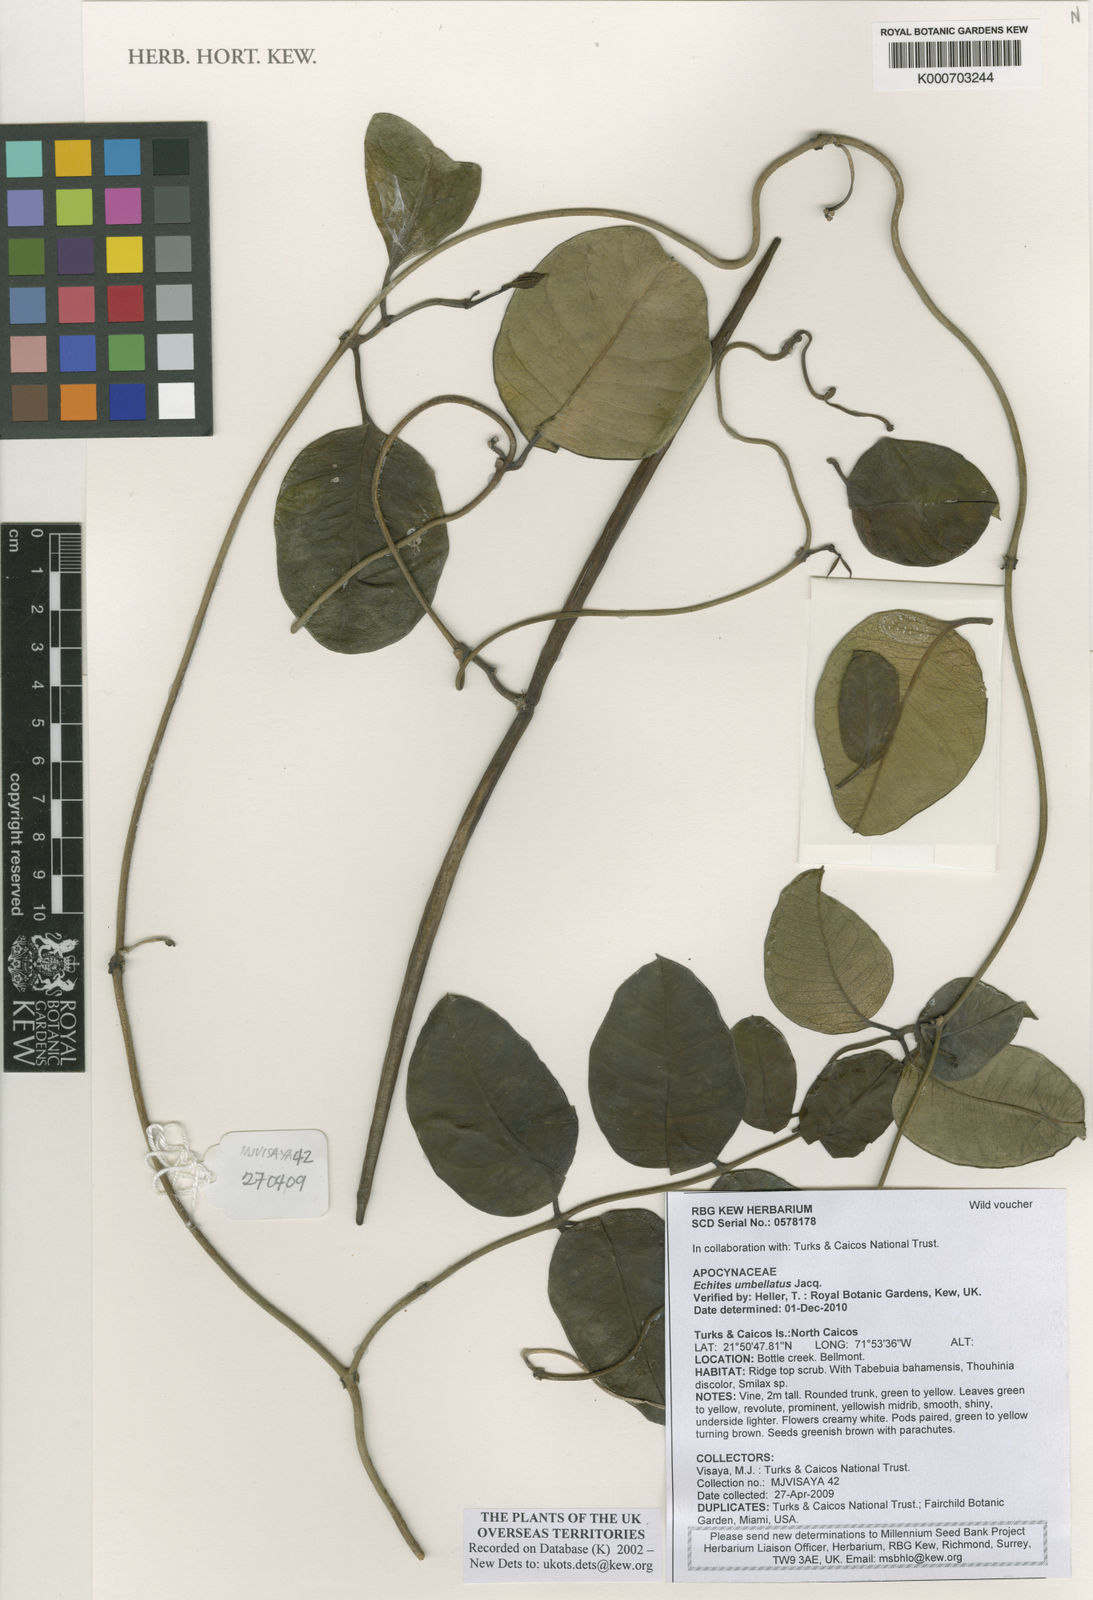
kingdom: Plantae
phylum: Tracheophyta
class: Magnoliopsida
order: Gentianales
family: Apocynaceae
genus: Echites
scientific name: Echites umbellatus
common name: Devil's potato
